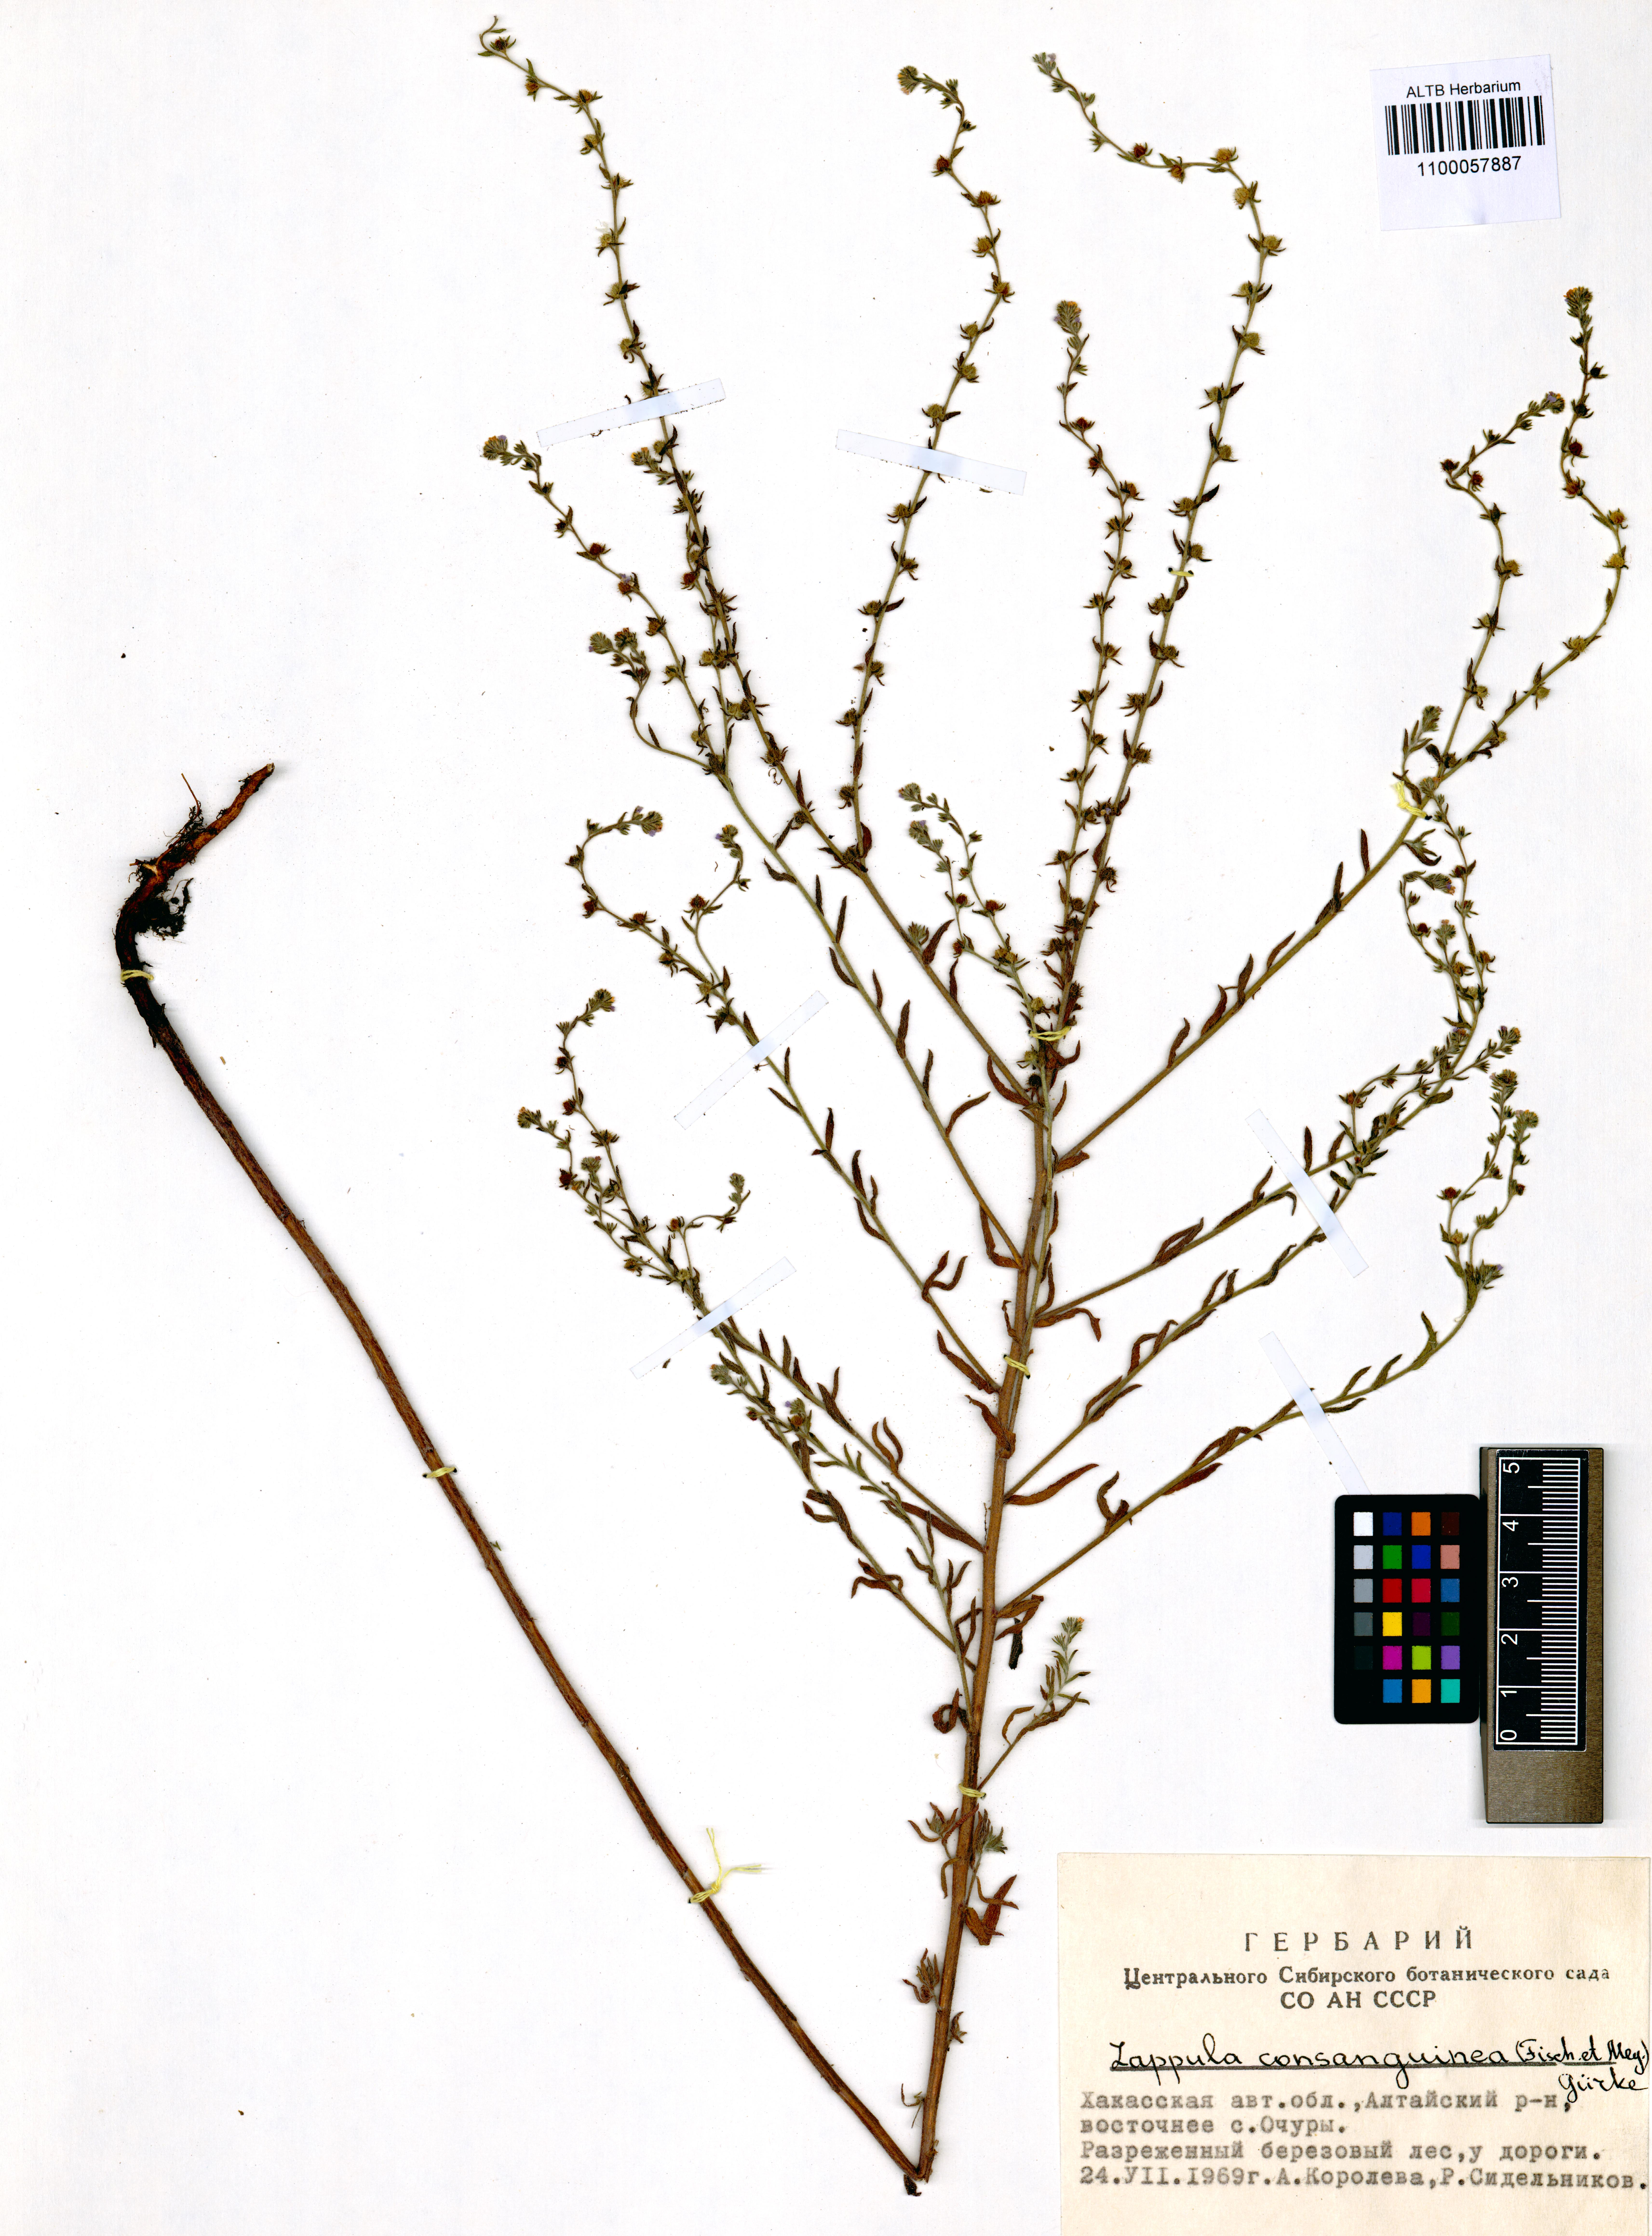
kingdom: Plantae
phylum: Tracheophyta
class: Magnoliopsida
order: Boraginales
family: Boraginaceae
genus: Lappula
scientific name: Lappula squarrosa
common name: European stickseed
